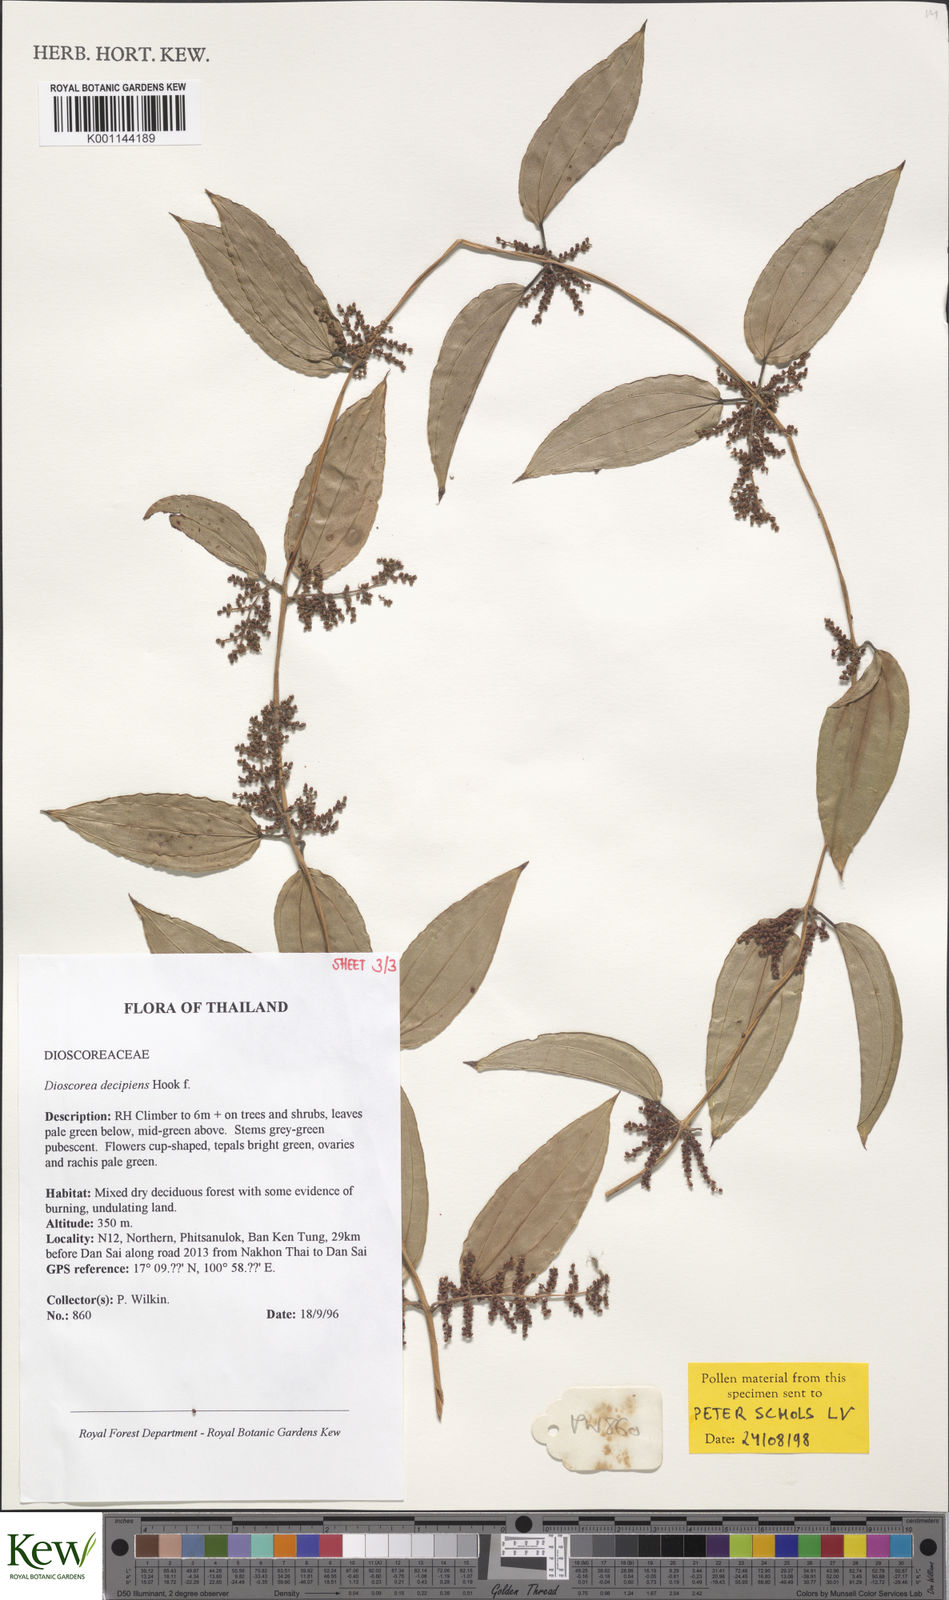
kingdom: Plantae
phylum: Tracheophyta
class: Liliopsida
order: Dioscoreales
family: Dioscoreaceae
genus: Dioscorea
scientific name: Dioscorea decipiens
